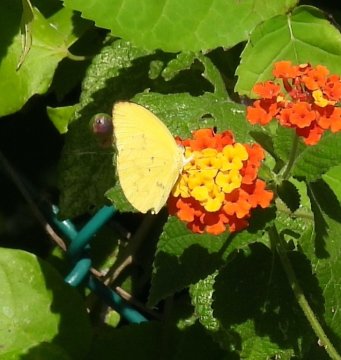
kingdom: Animalia
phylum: Arthropoda
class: Insecta
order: Lepidoptera
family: Pieridae
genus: Pyrisitia
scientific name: Pyrisitia dina
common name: Dina Yellow
